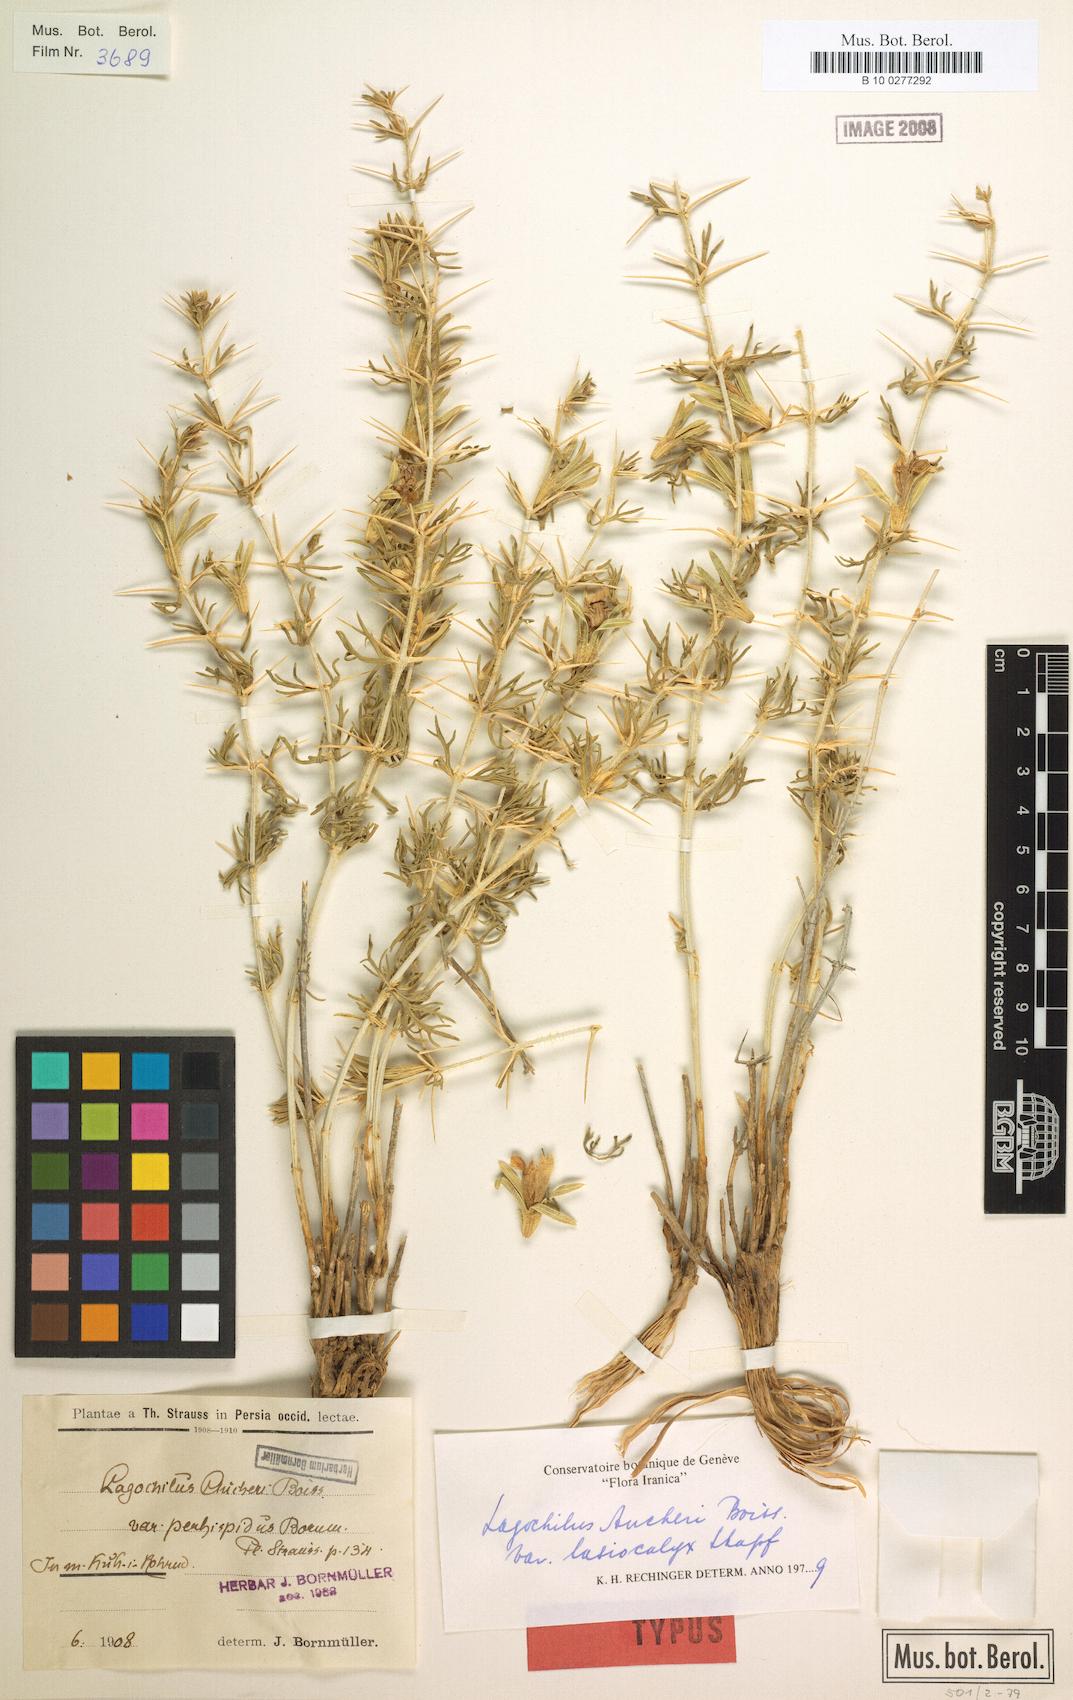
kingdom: Plantae
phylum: Tracheophyta
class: Magnoliopsida
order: Lamiales
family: Lamiaceae
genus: Lagochilus
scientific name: Lagochilus aucheri
